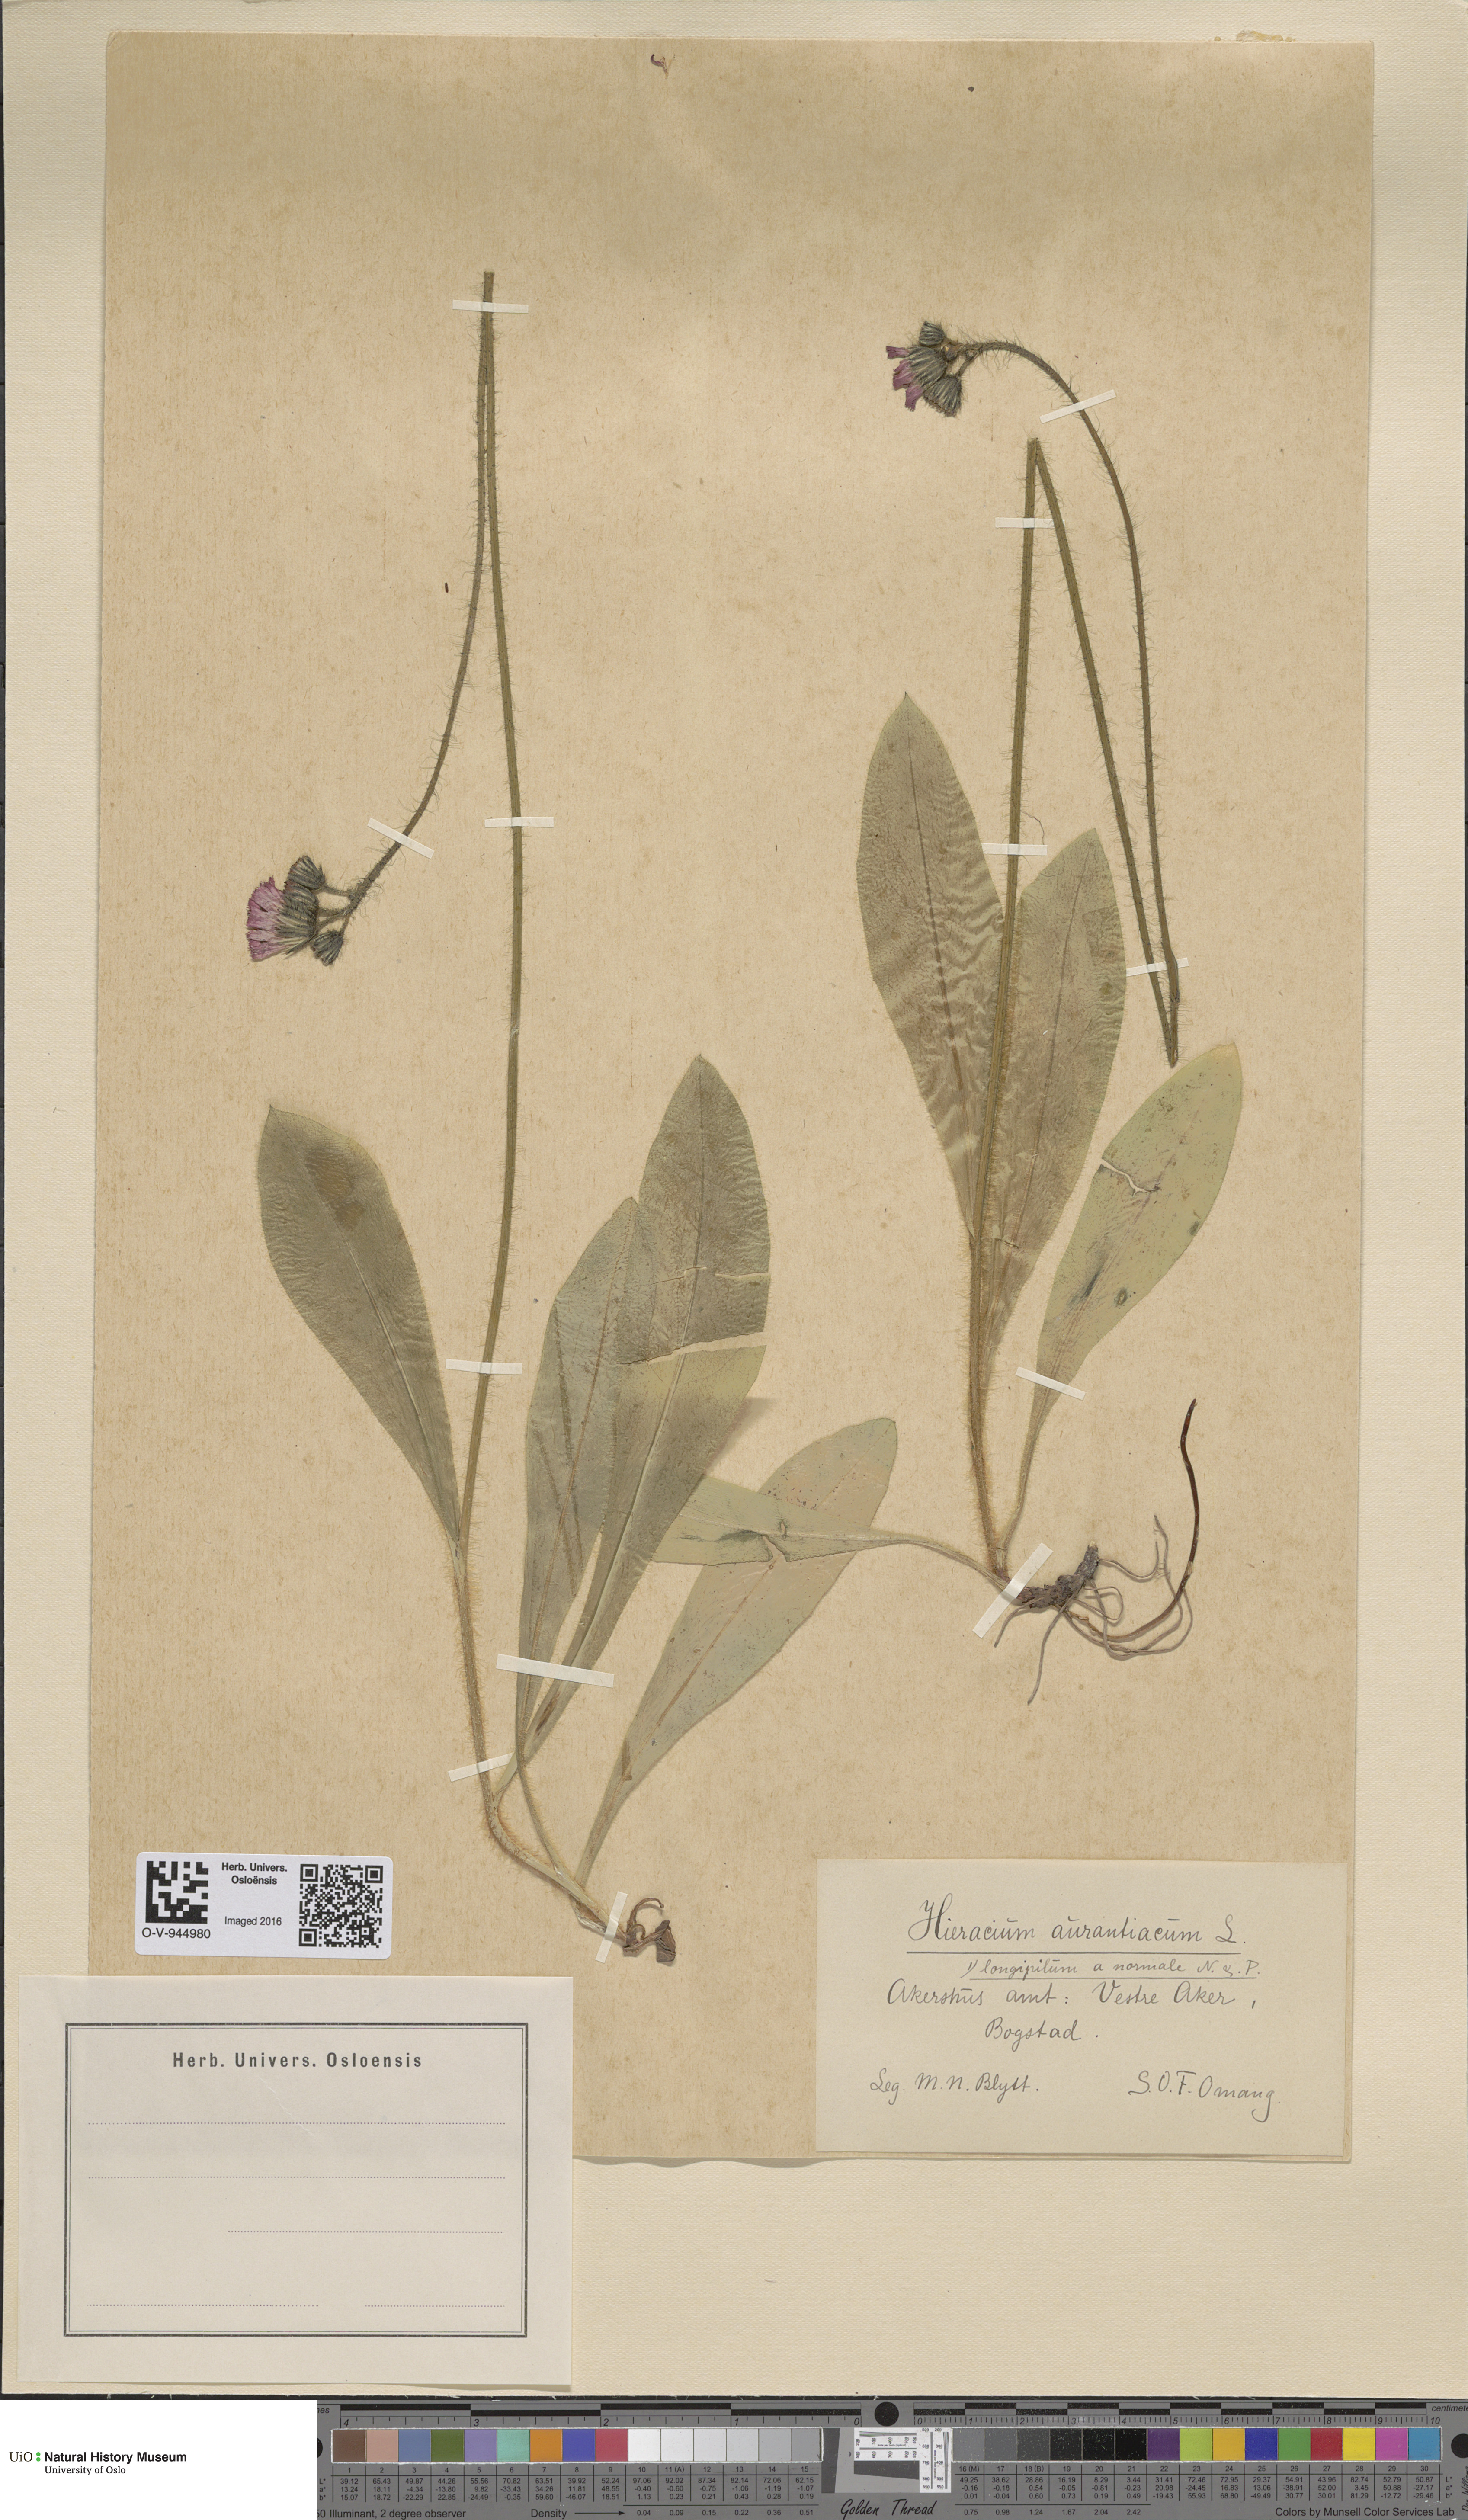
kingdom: Plantae
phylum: Tracheophyta
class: Magnoliopsida
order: Asterales
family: Asteraceae
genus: Pilosella
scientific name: Pilosella aurantiaca
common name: Fox-and-cubs
